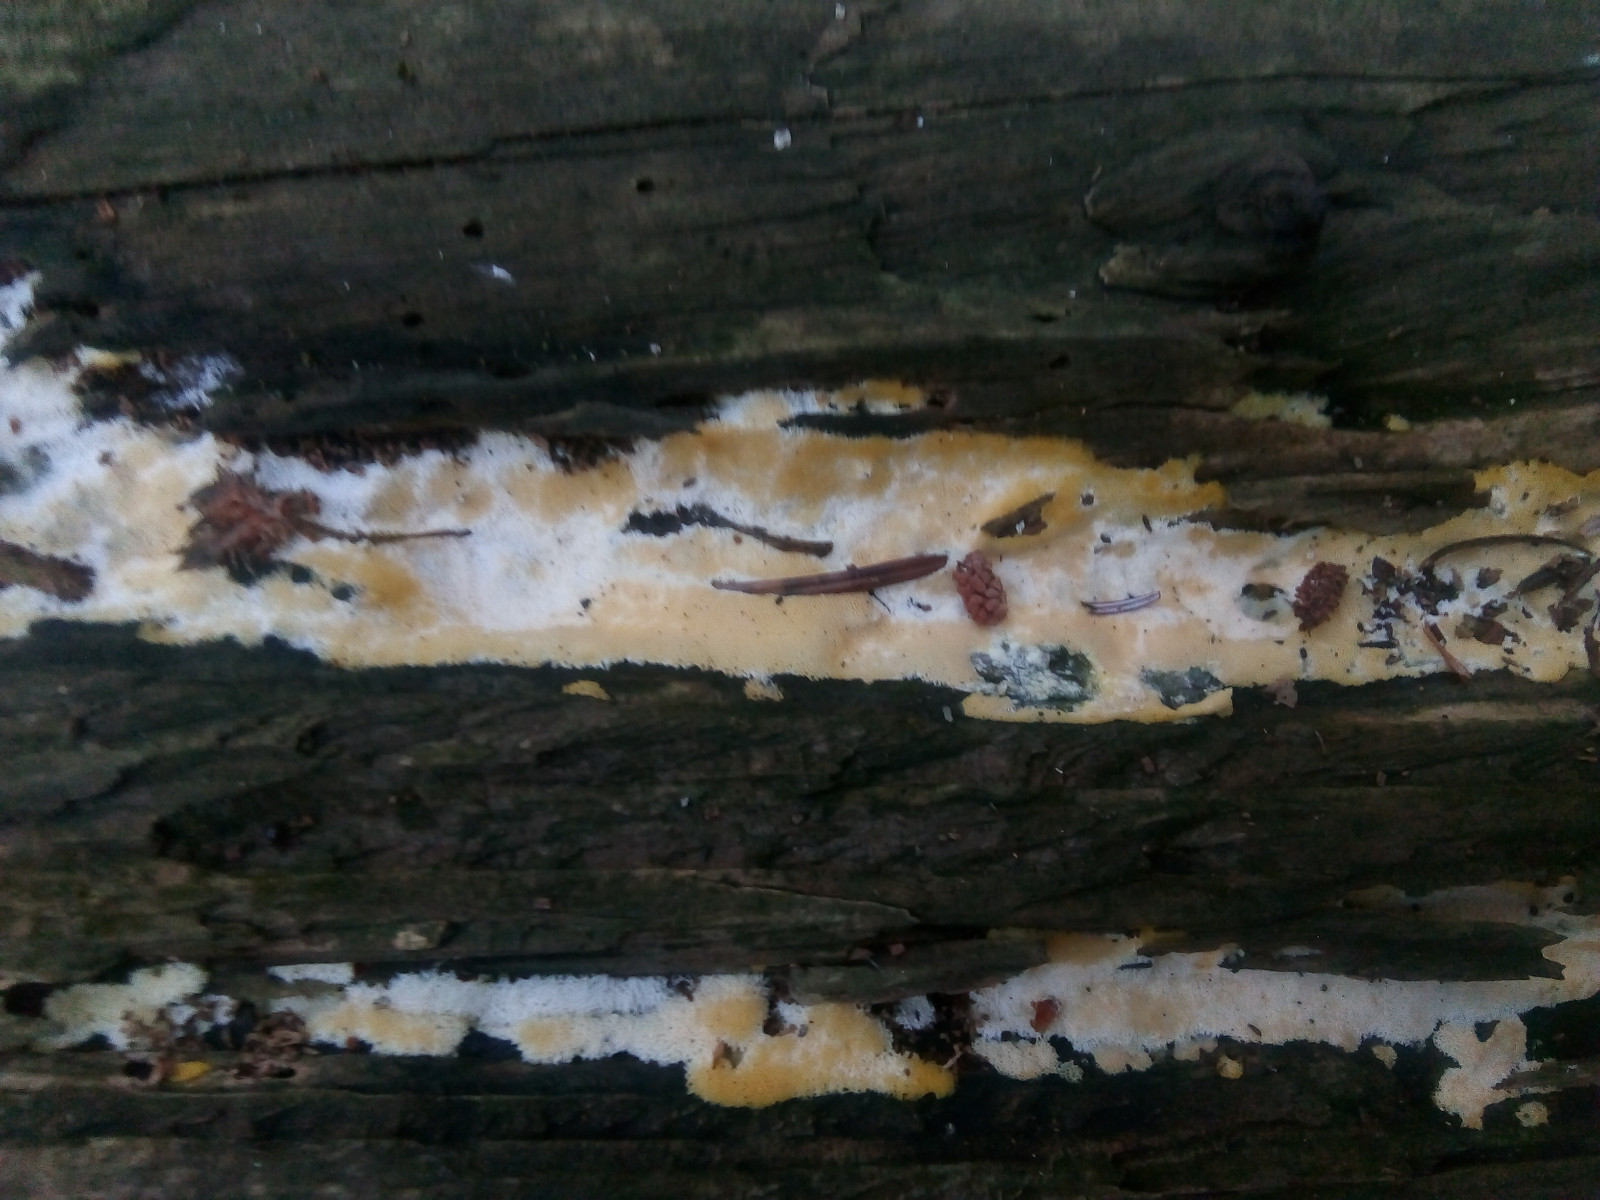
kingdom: Protozoa
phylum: Mycetozoa
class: Protosteliomycetes
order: Ceratiomyxales
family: Ceratiomyxaceae
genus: Ceratiomyxa
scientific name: Ceratiomyxa fruticulosa
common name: Honeycomb coral slime mold
